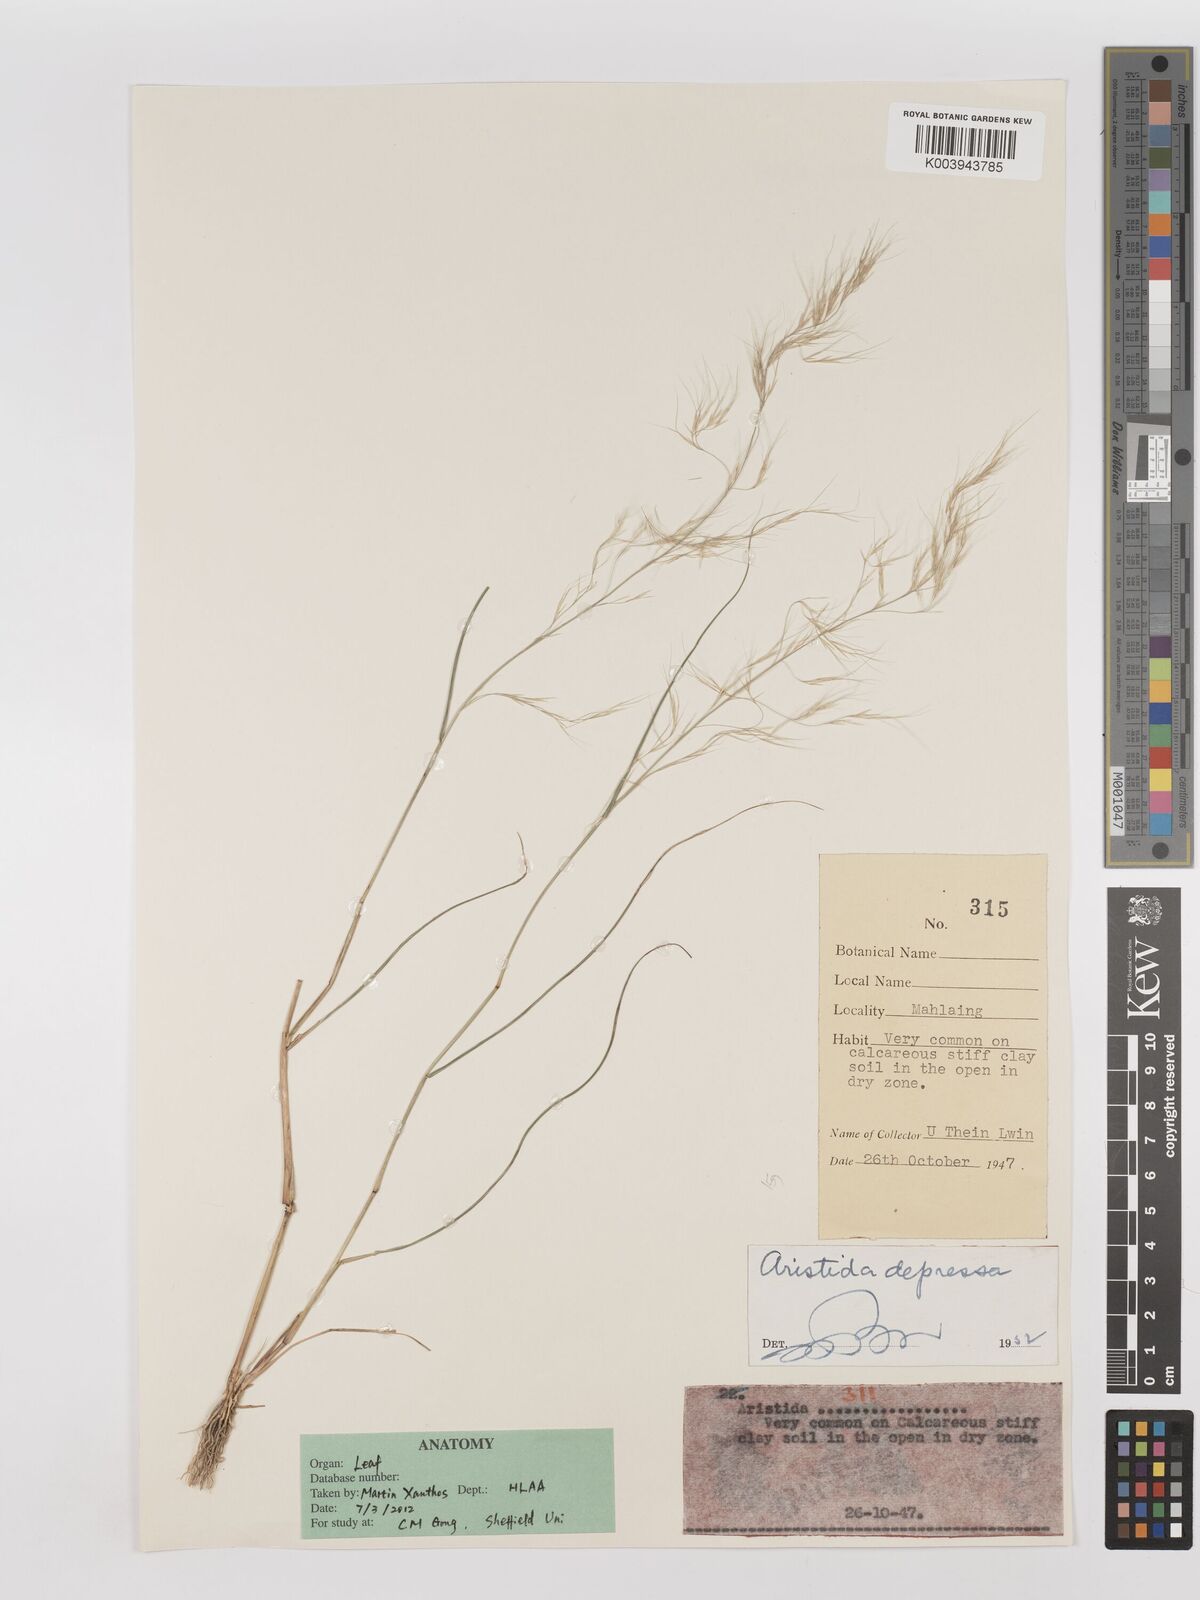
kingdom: Plantae
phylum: Tracheophyta
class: Liliopsida
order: Poales
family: Poaceae
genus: Aristida
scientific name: Aristida adscensionis
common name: Sixweeks threeawn
